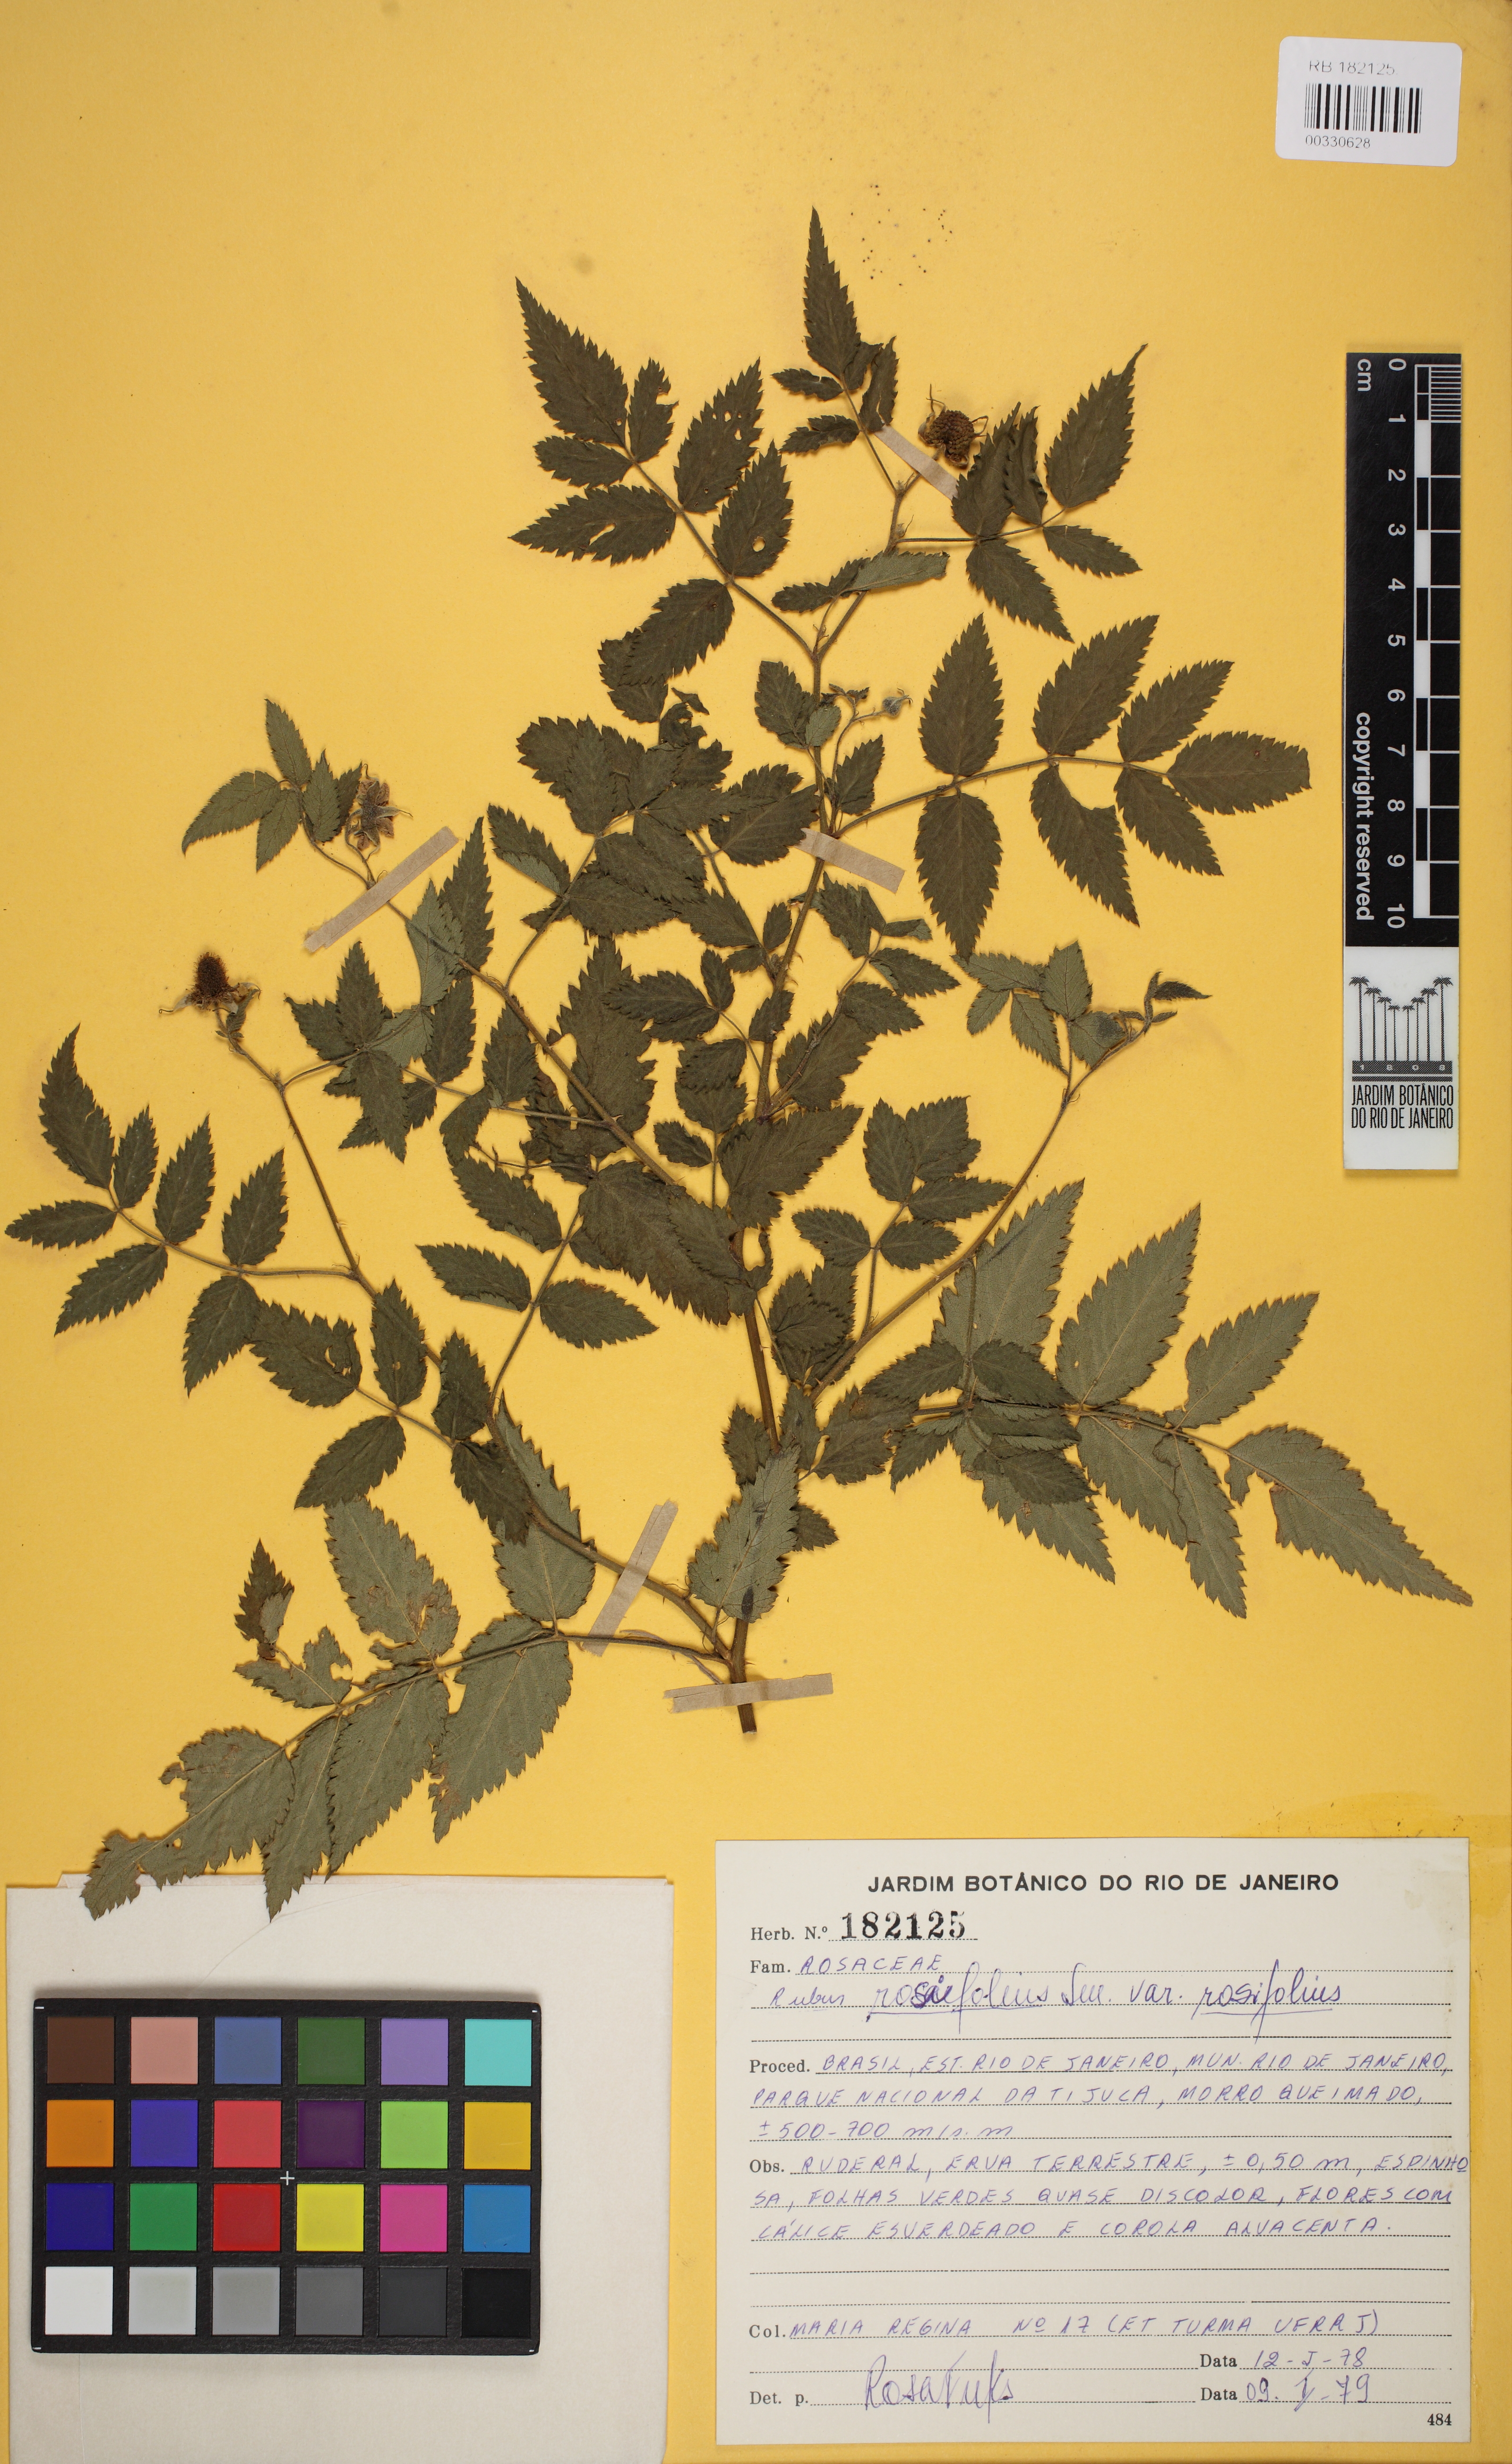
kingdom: Plantae
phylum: Tracheophyta
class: Magnoliopsida
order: Rosales
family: Rosaceae
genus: Rubus
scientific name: Rubus rosifolius
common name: Roseleaf raspberry
